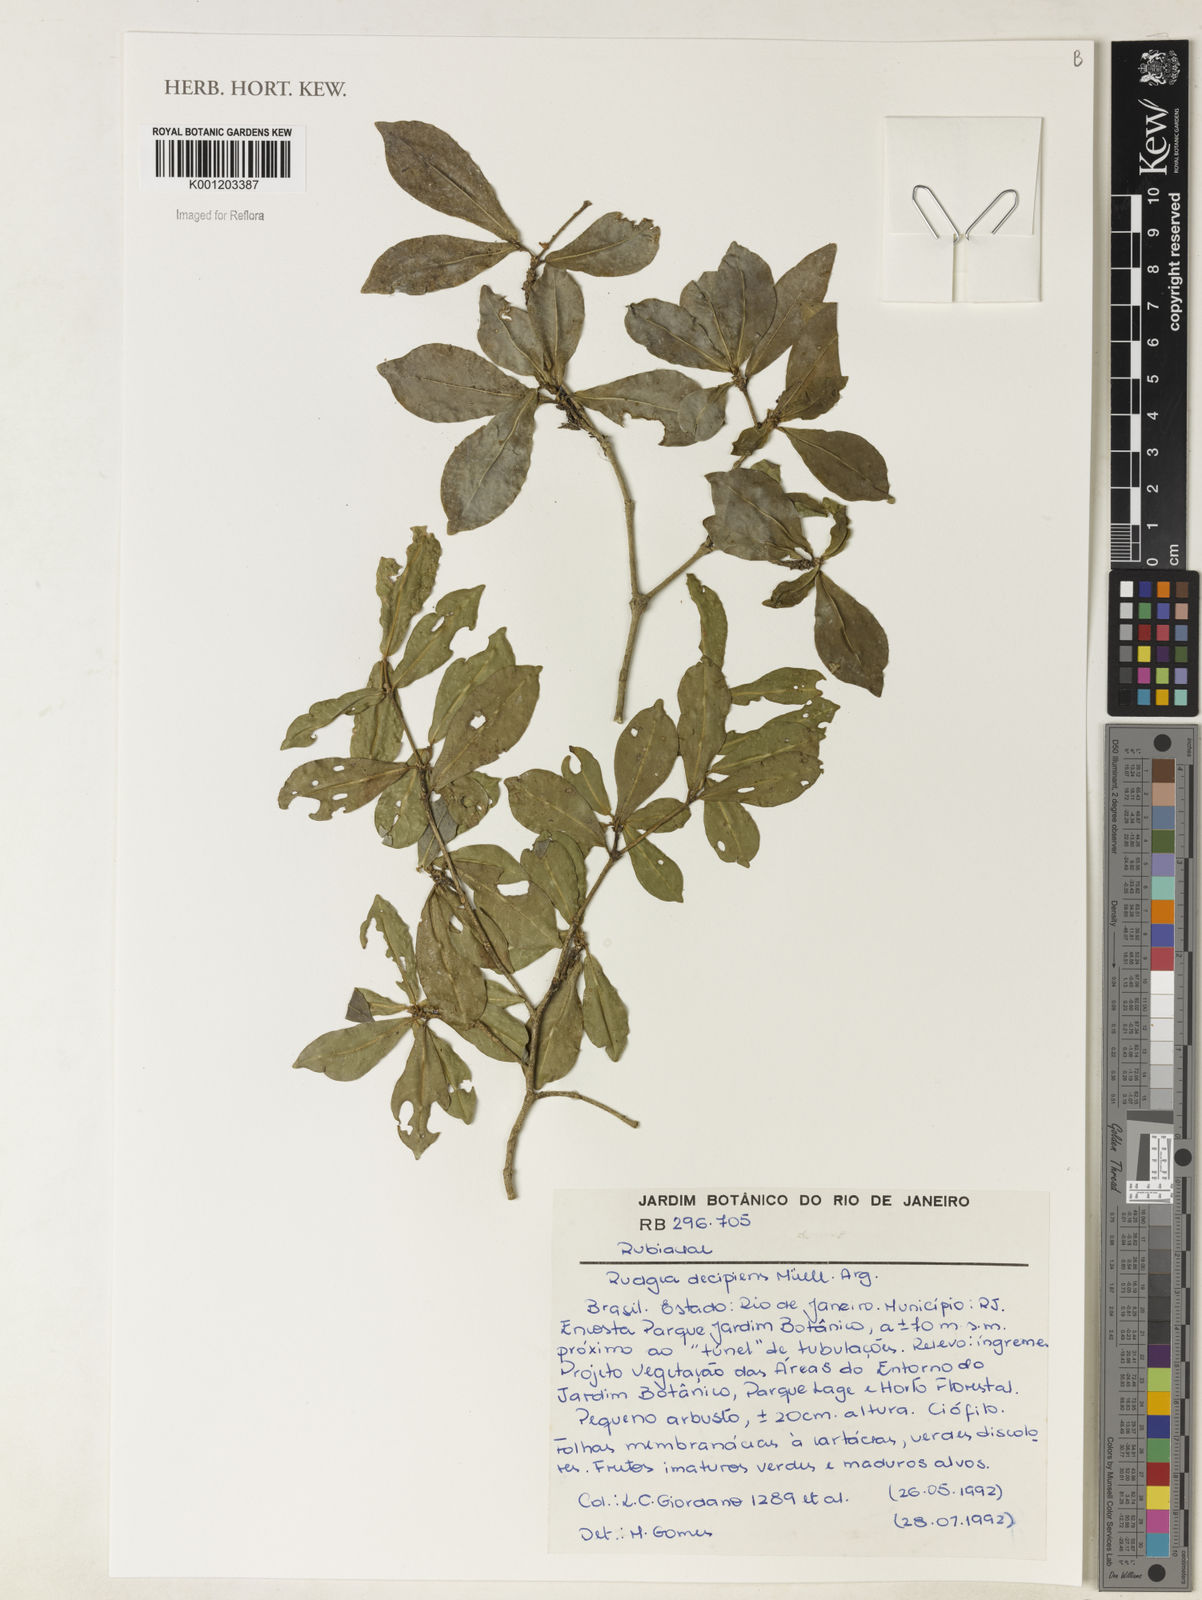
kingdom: Plantae
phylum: Tracheophyta
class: Magnoliopsida
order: Gentianales
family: Rubiaceae
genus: Rudgea
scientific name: Rudgea
